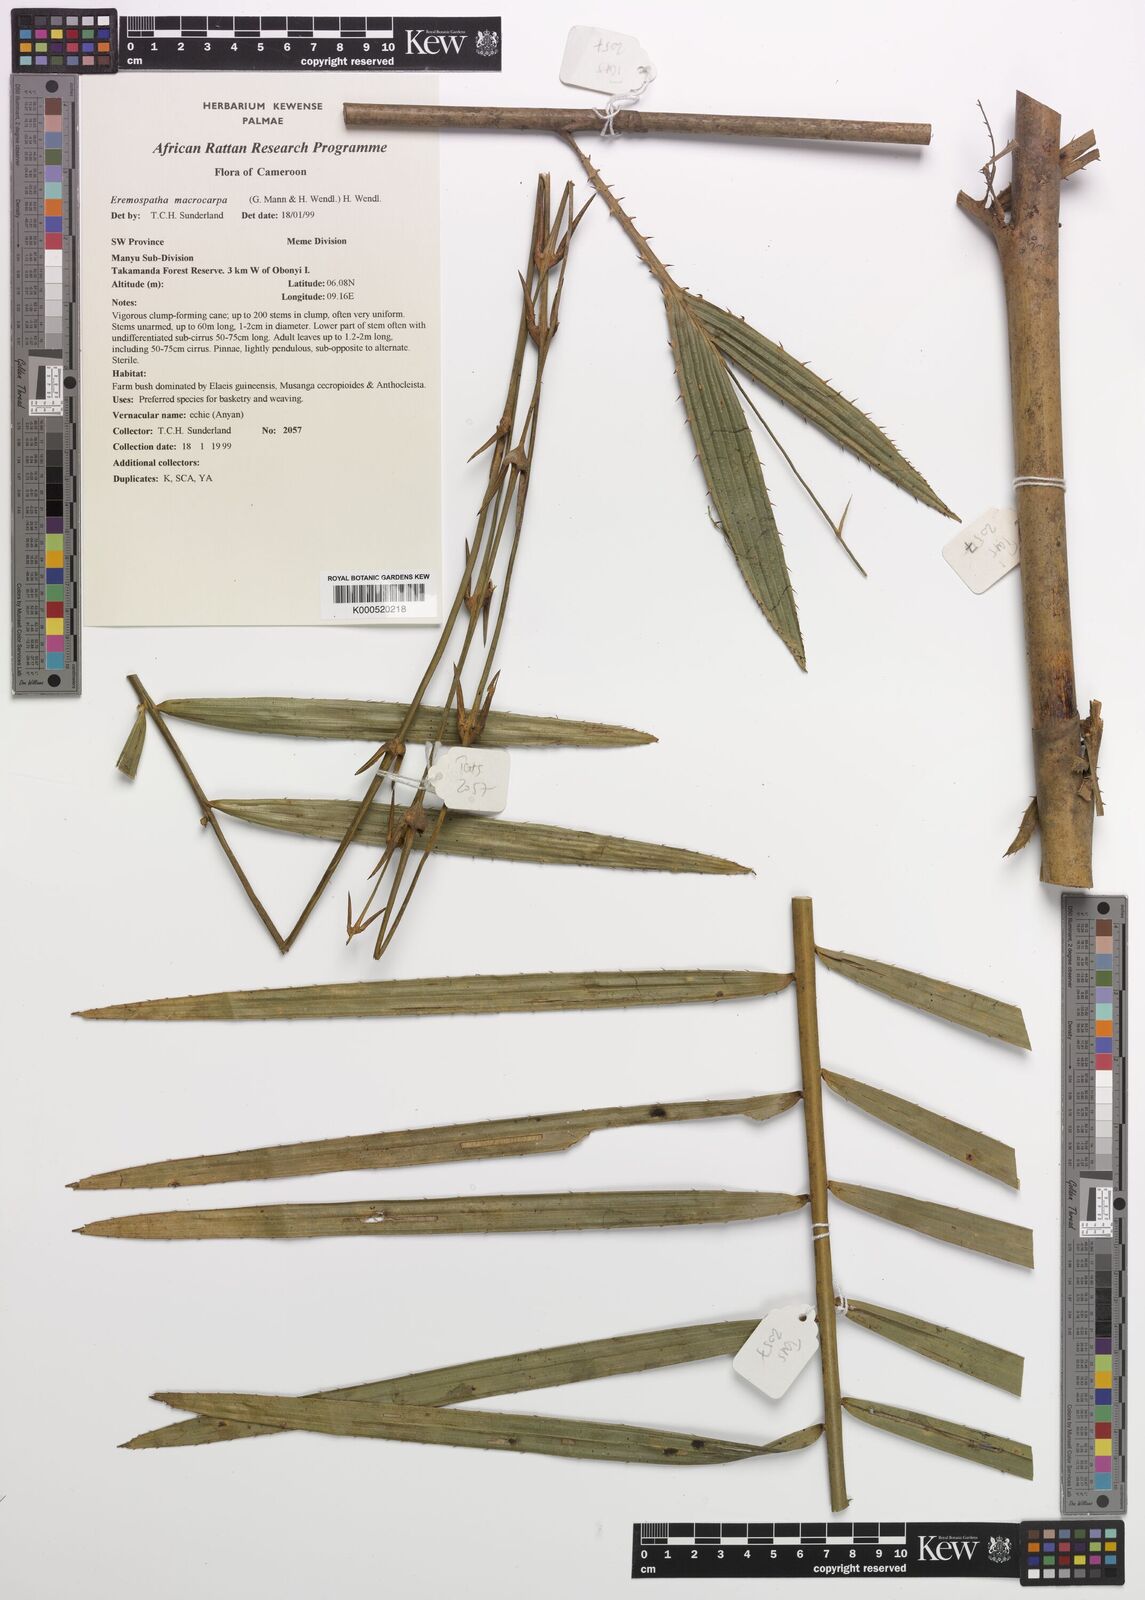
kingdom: Plantae
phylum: Tracheophyta
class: Liliopsida
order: Arecales
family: Arecaceae
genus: Eremospatha
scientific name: Eremospatha
